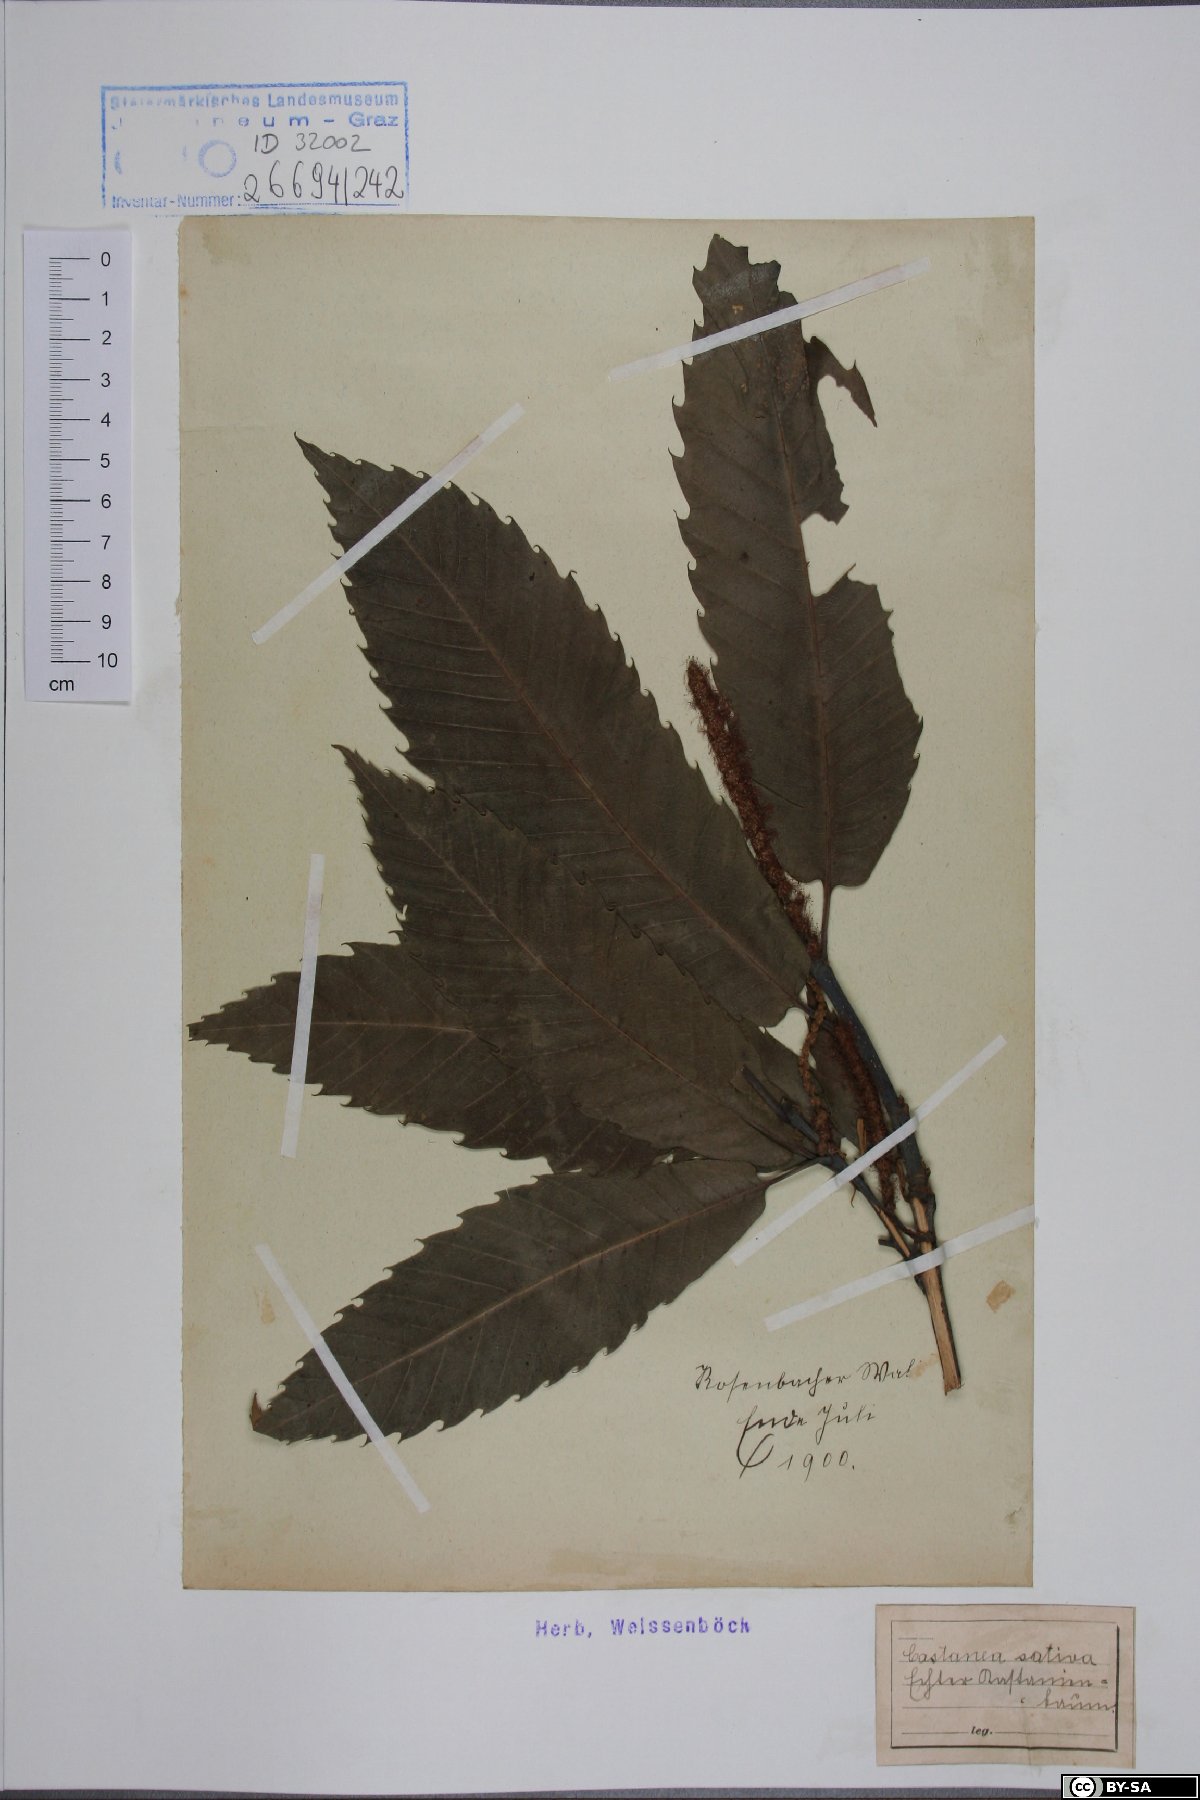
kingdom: Plantae
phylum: Tracheophyta
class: Magnoliopsida
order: Fagales
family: Fagaceae
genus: Castanea
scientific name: Castanea sativa
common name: Sweet chestnut
